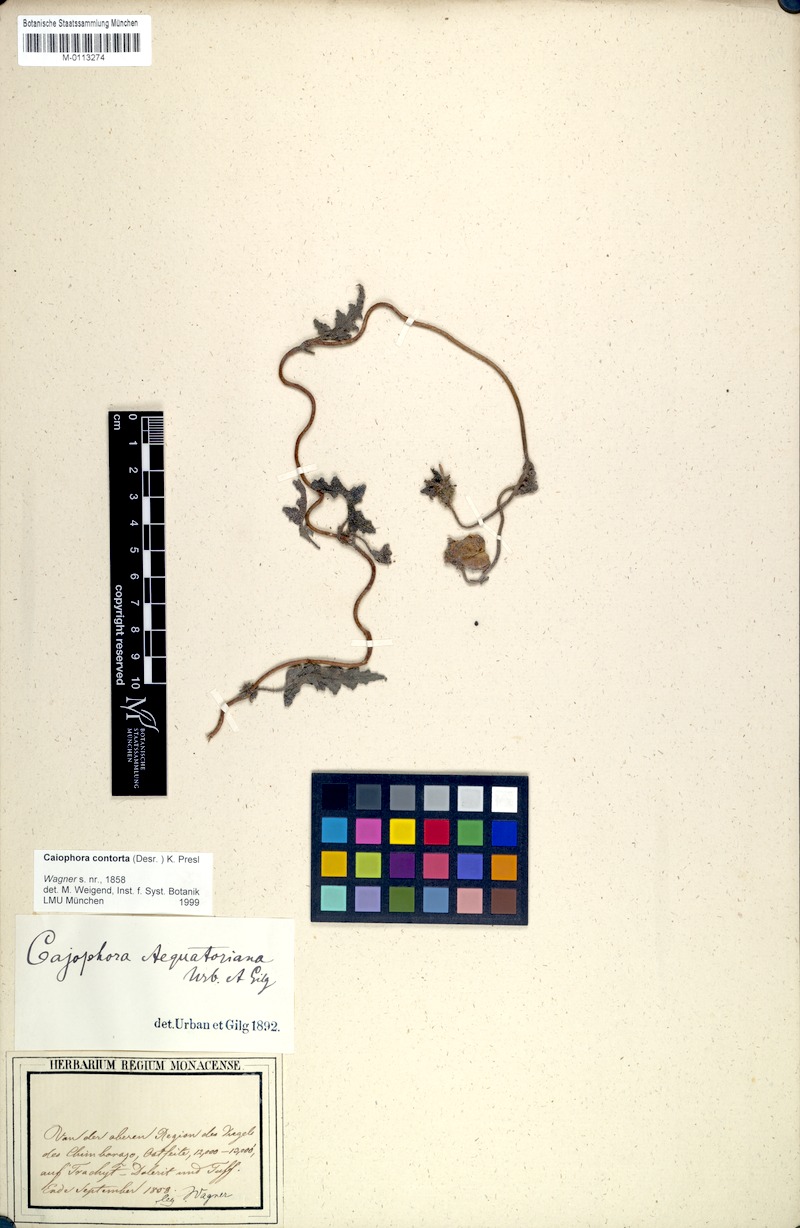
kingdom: Plantae
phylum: Tracheophyta
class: Magnoliopsida
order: Cornales
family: Loasaceae
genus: Caiophora
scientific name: Caiophora contorta
